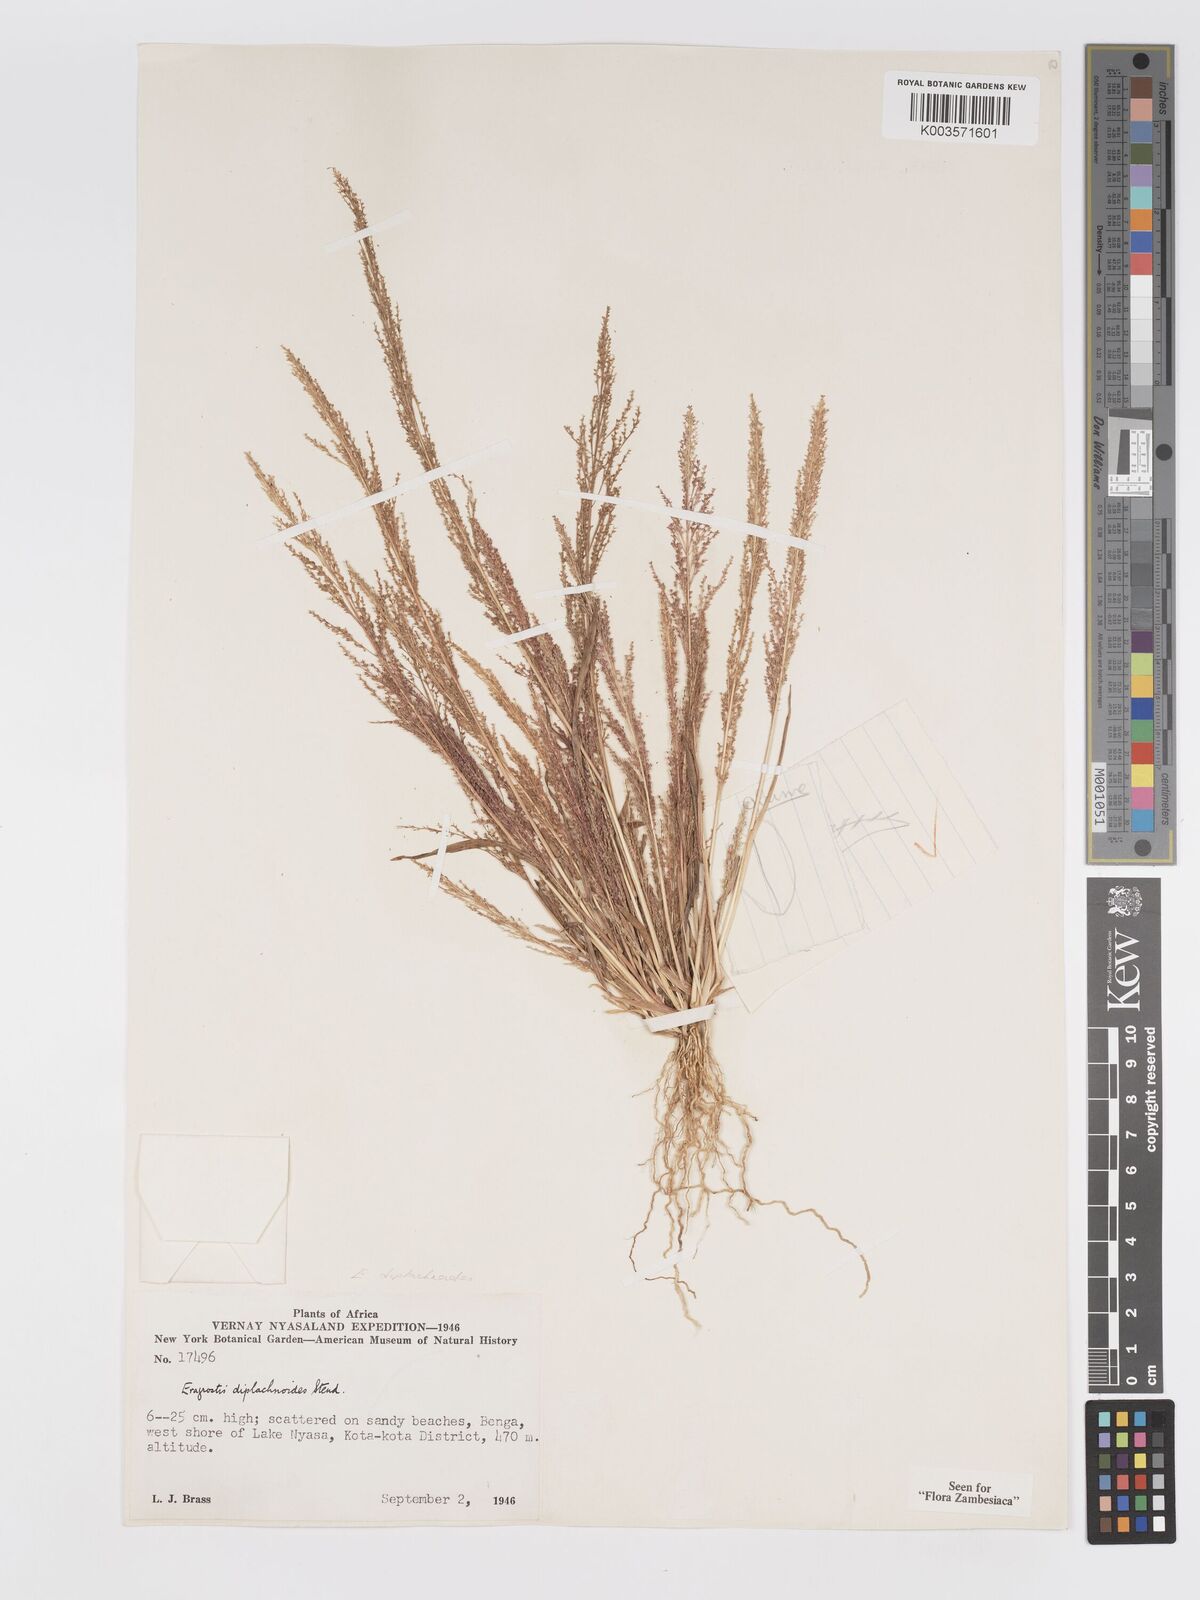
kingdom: Plantae
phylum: Tracheophyta
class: Liliopsida
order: Poales
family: Poaceae
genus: Eragrostis
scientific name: Eragrostis japonica
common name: Pond lovegrass
